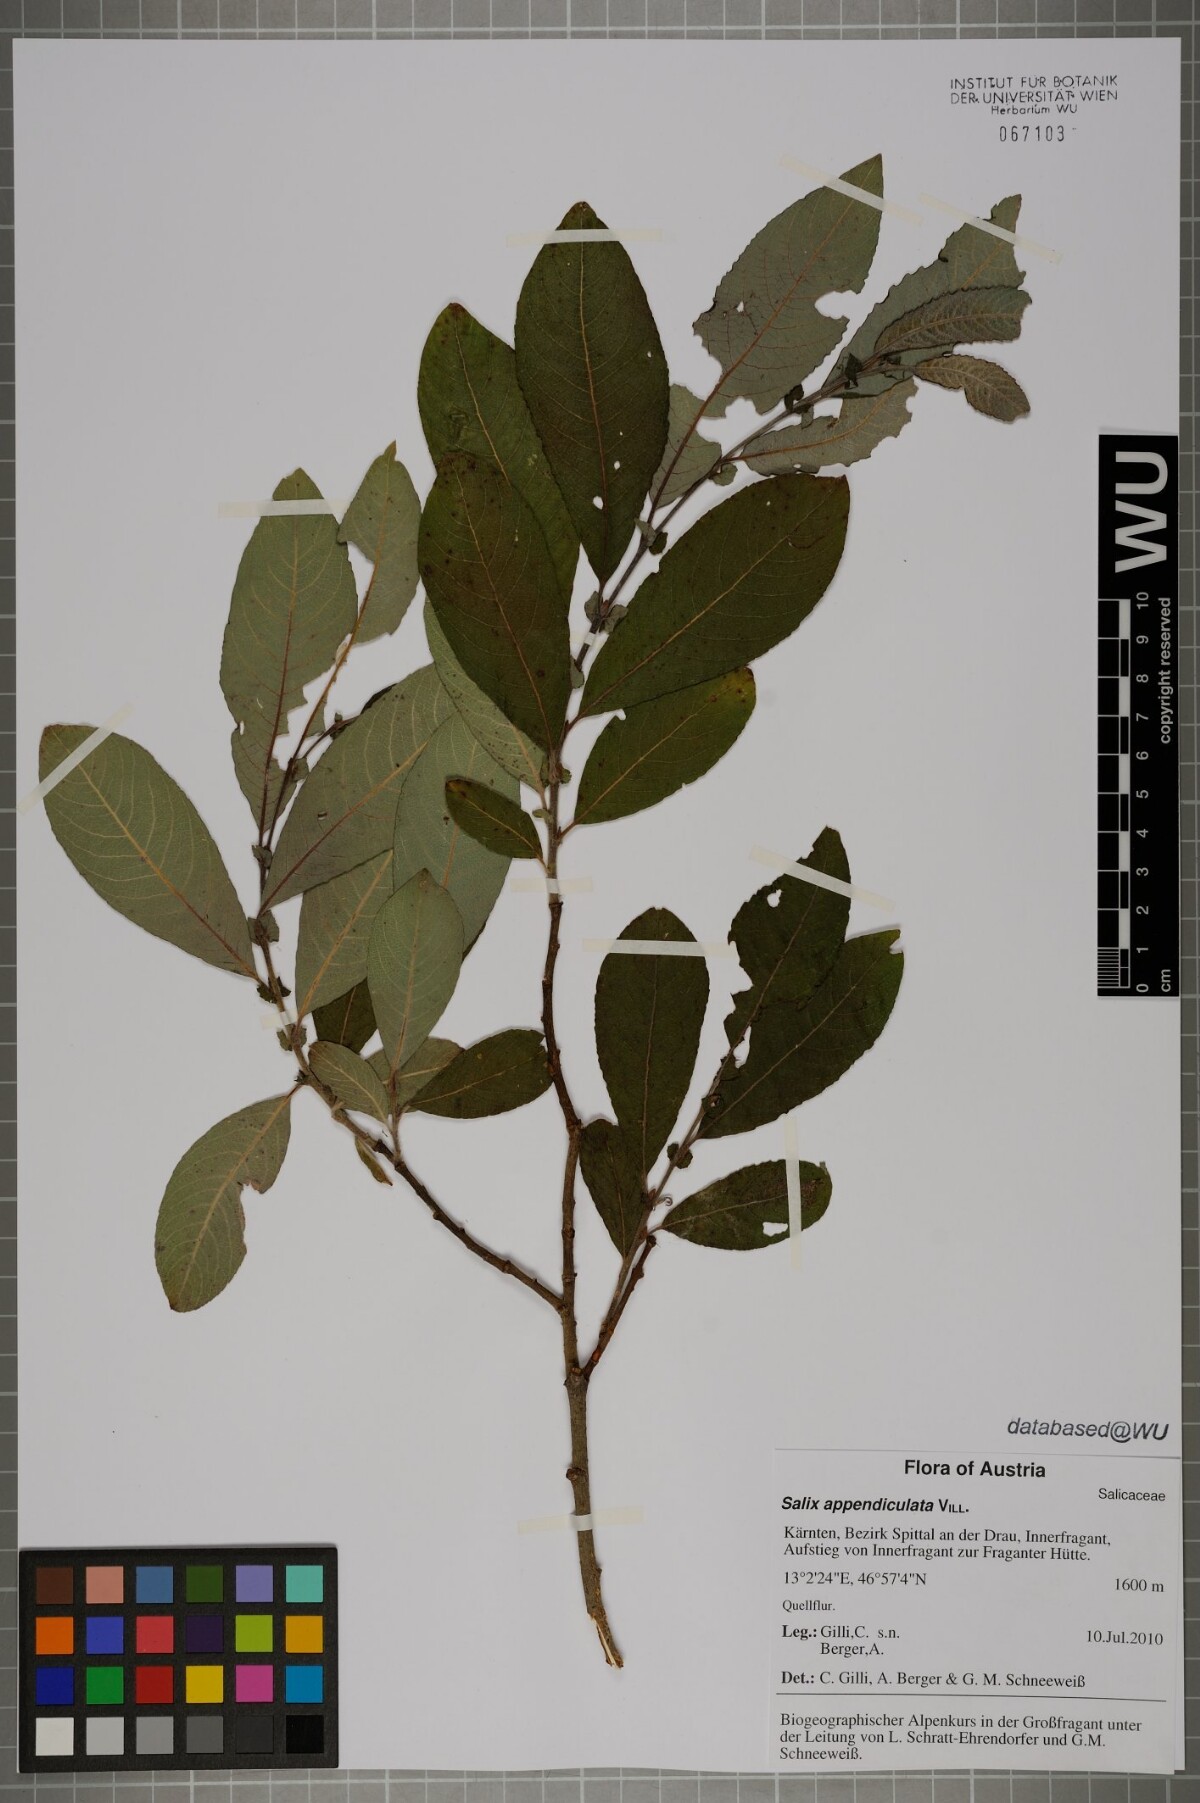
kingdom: Plantae
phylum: Tracheophyta
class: Magnoliopsida
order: Malpighiales
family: Salicaceae
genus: Salix
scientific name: Salix appendiculata
